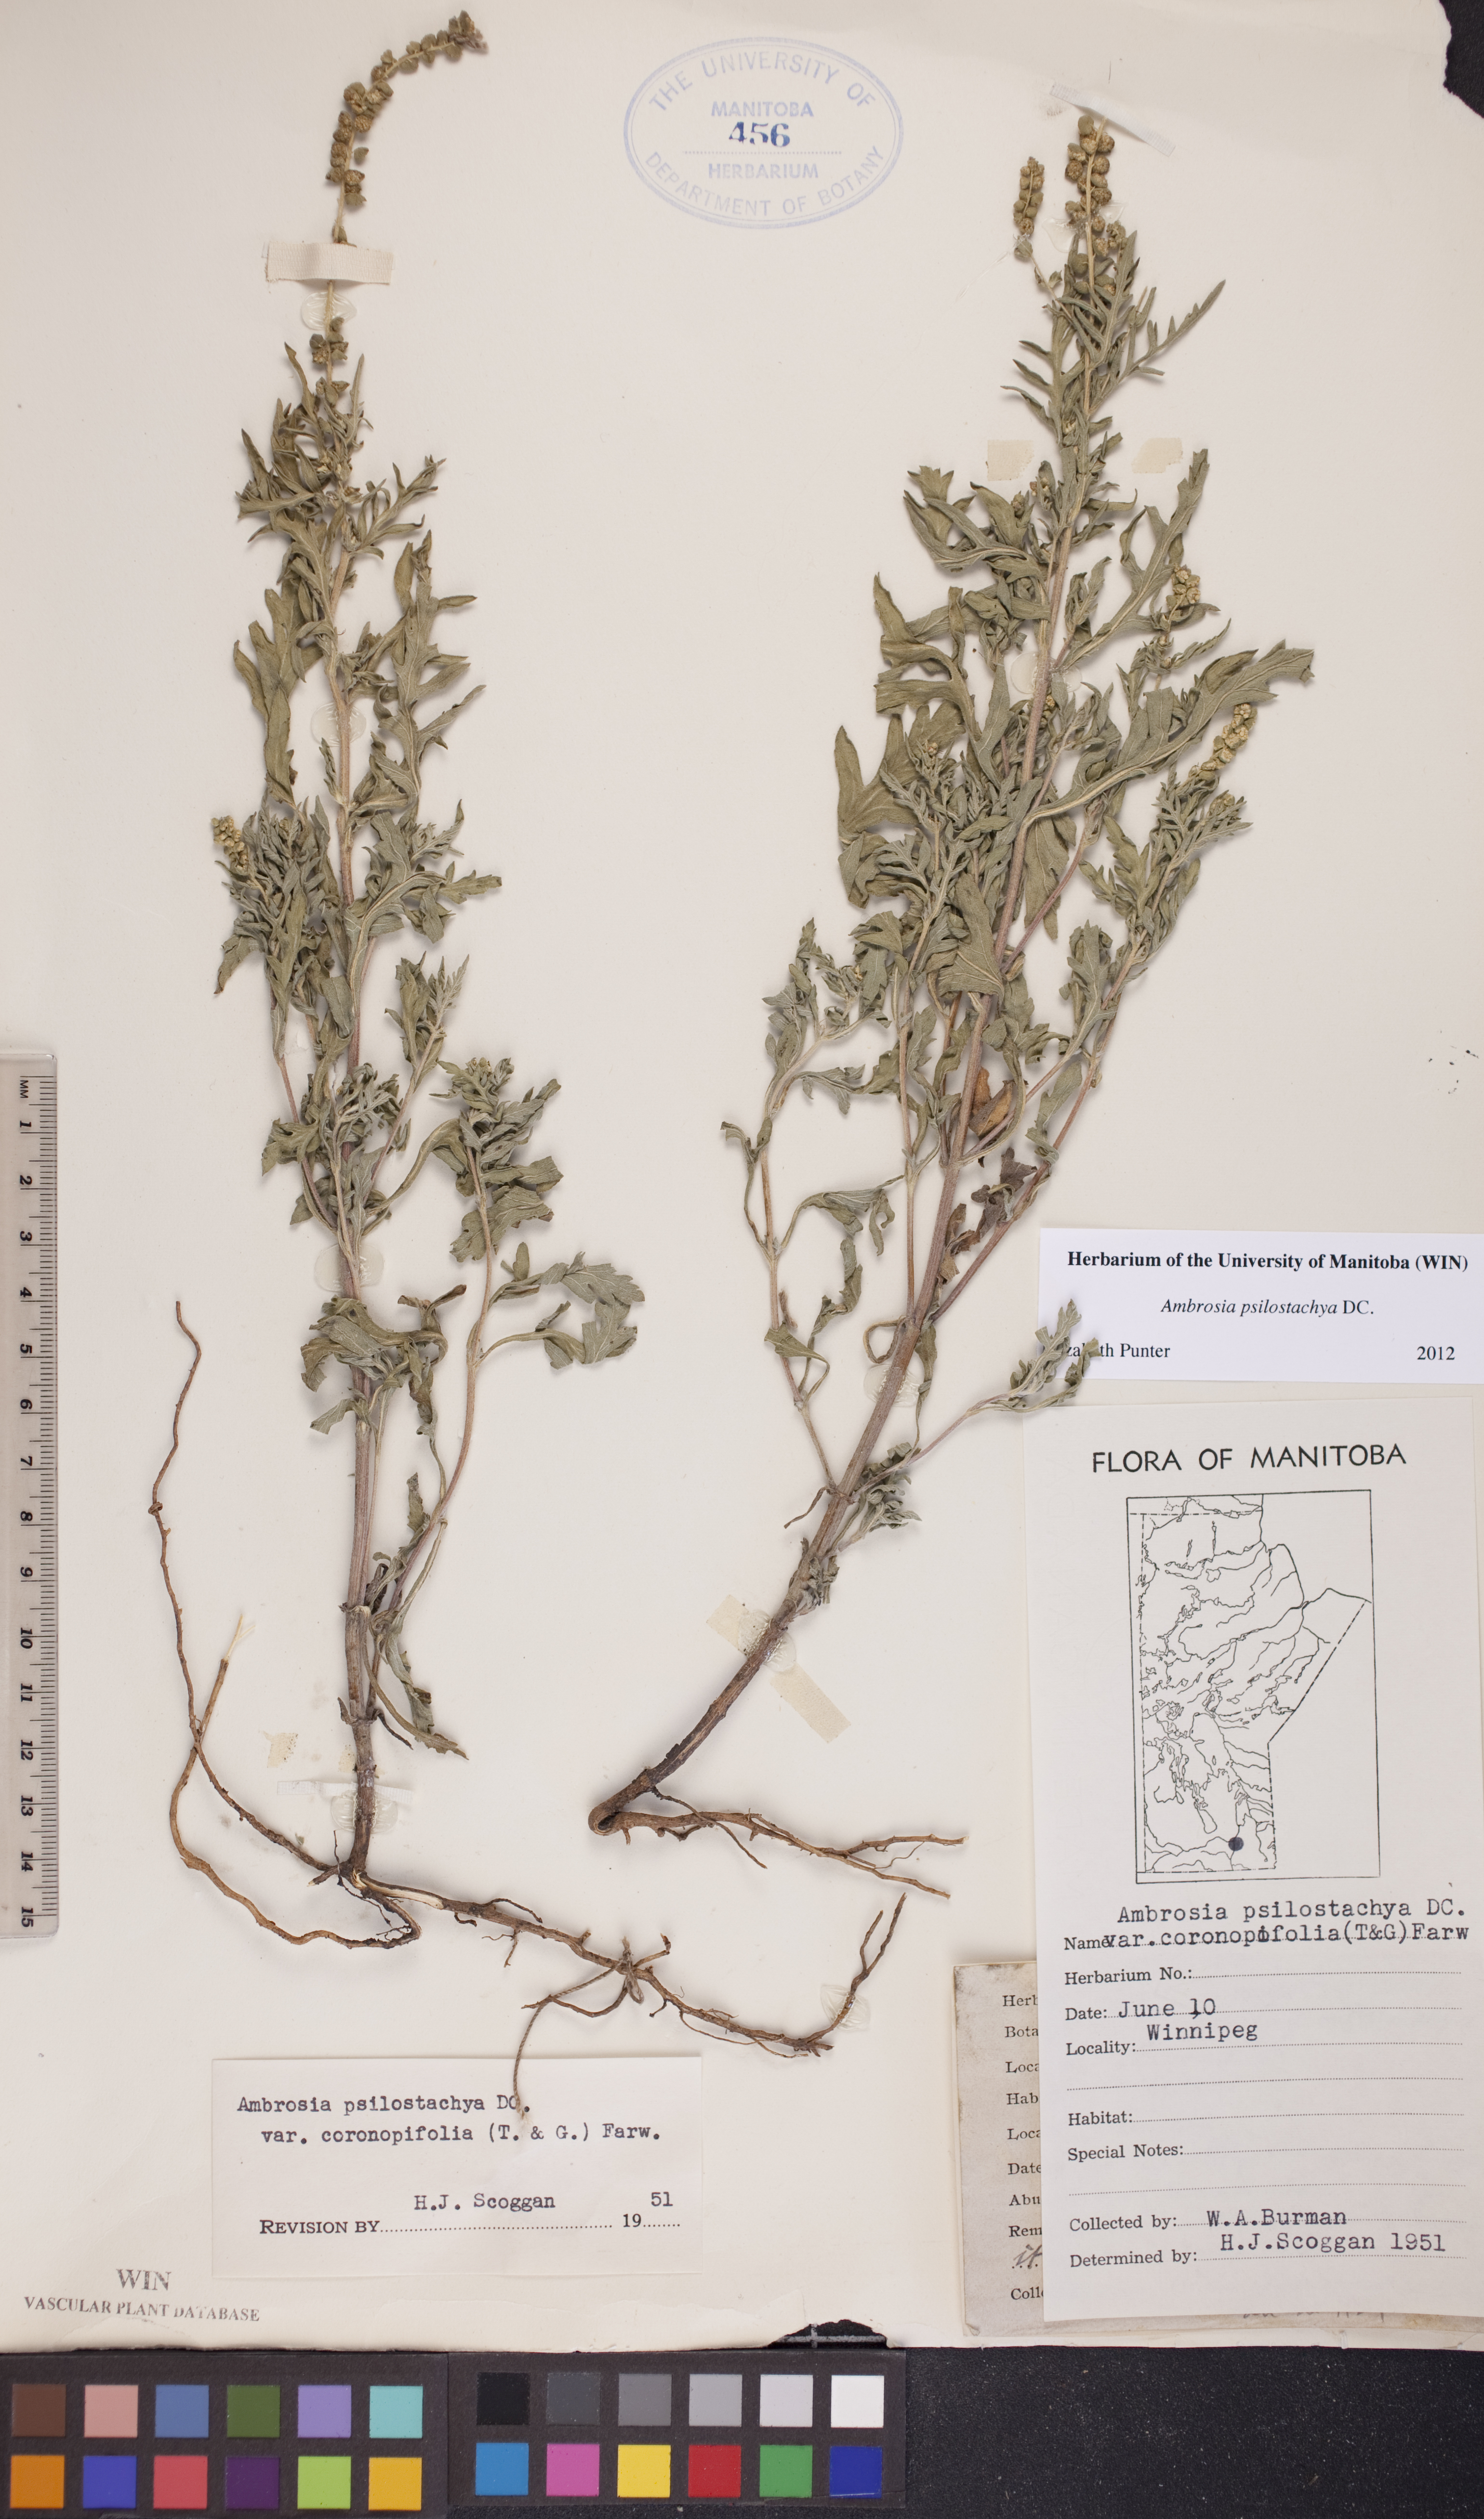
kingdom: Plantae
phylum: Tracheophyta
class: Magnoliopsida
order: Asterales
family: Asteraceae
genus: Ambrosia
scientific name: Ambrosia psilostachya
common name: Perennial ragweed
